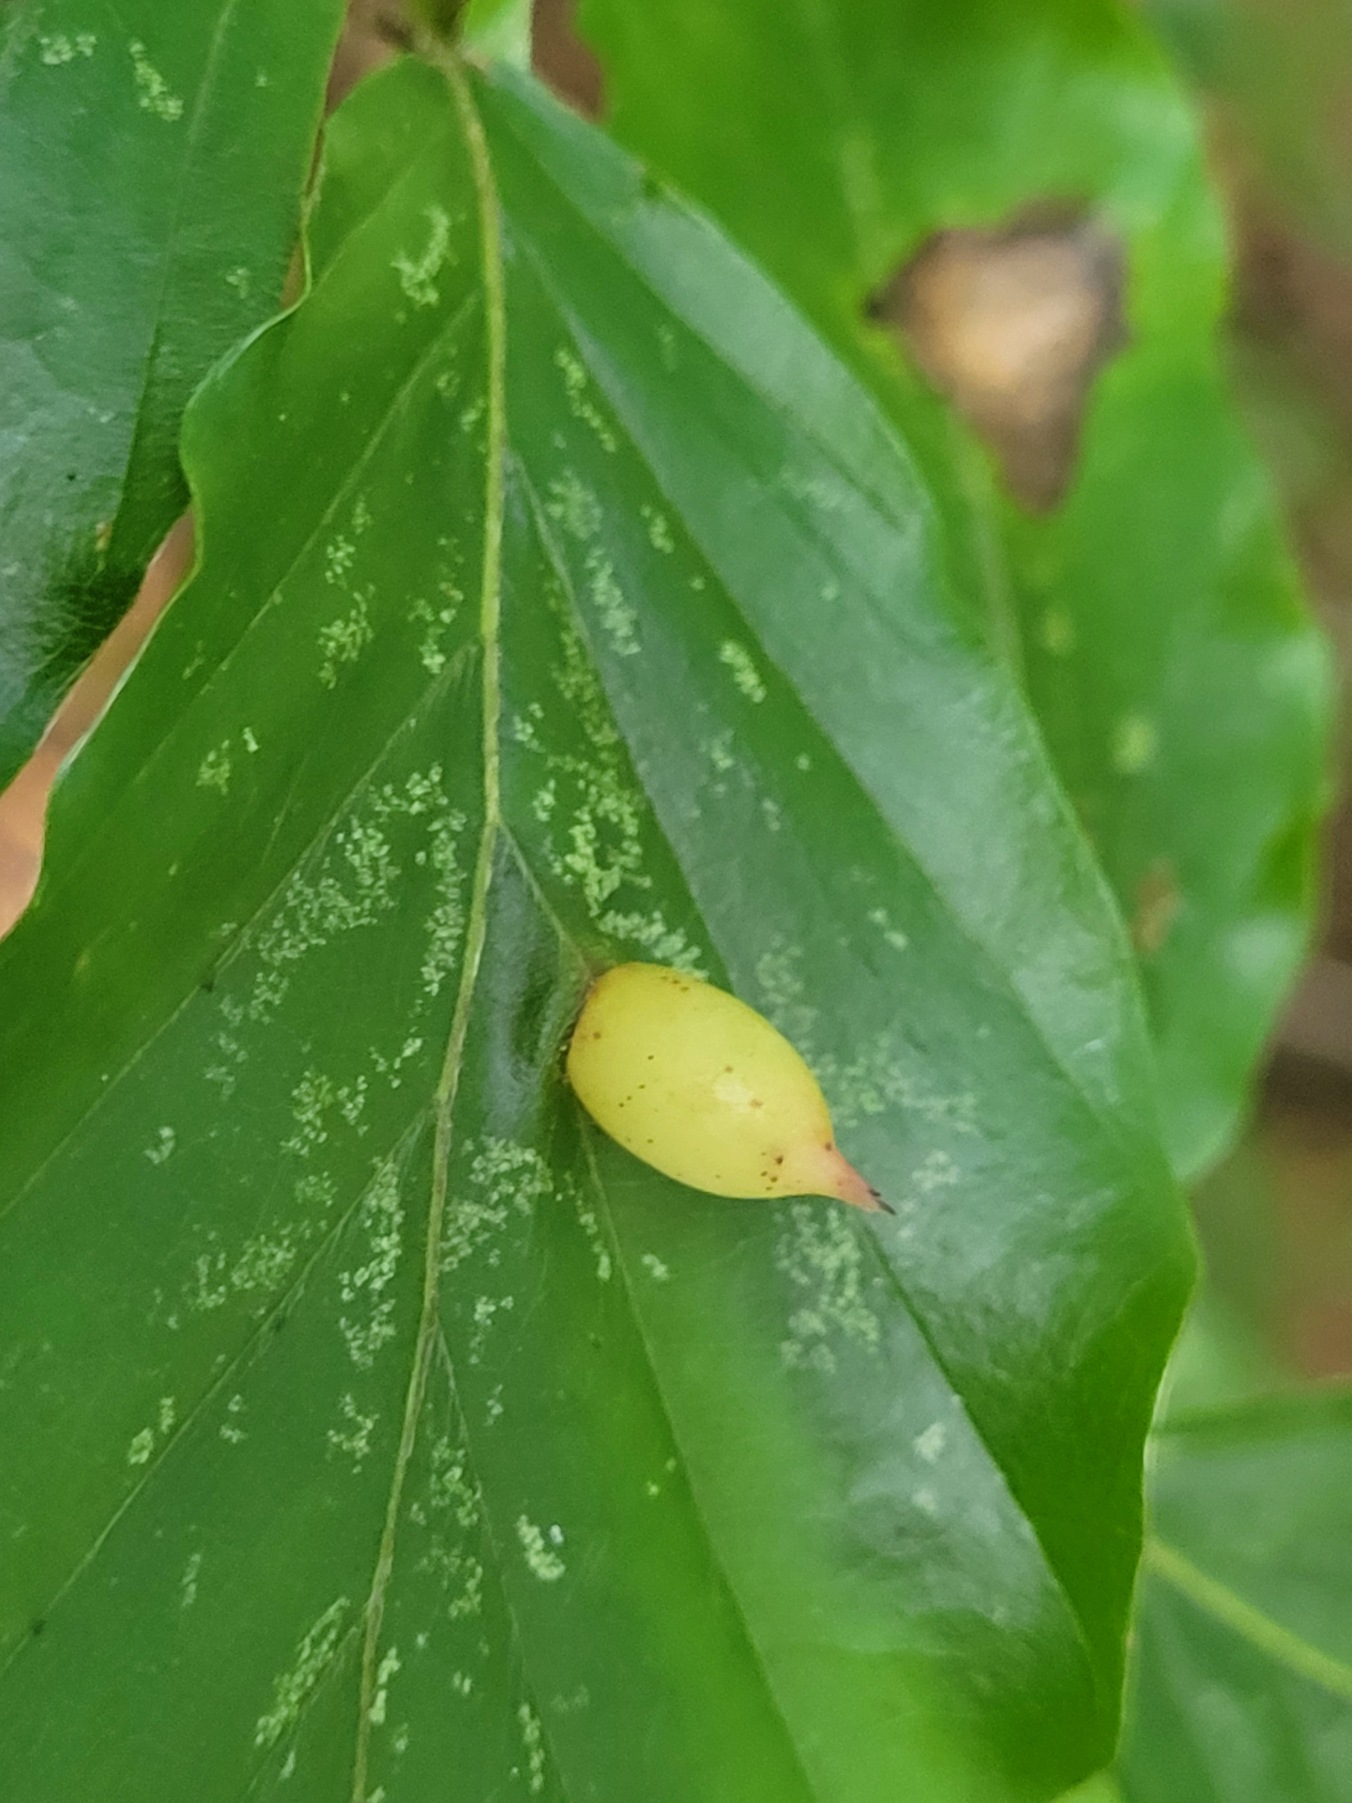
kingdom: Animalia
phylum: Arthropoda
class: Insecta
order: Diptera
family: Cecidomyiidae
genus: Mikiola
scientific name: Mikiola fagi
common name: Bøgegalmyg
